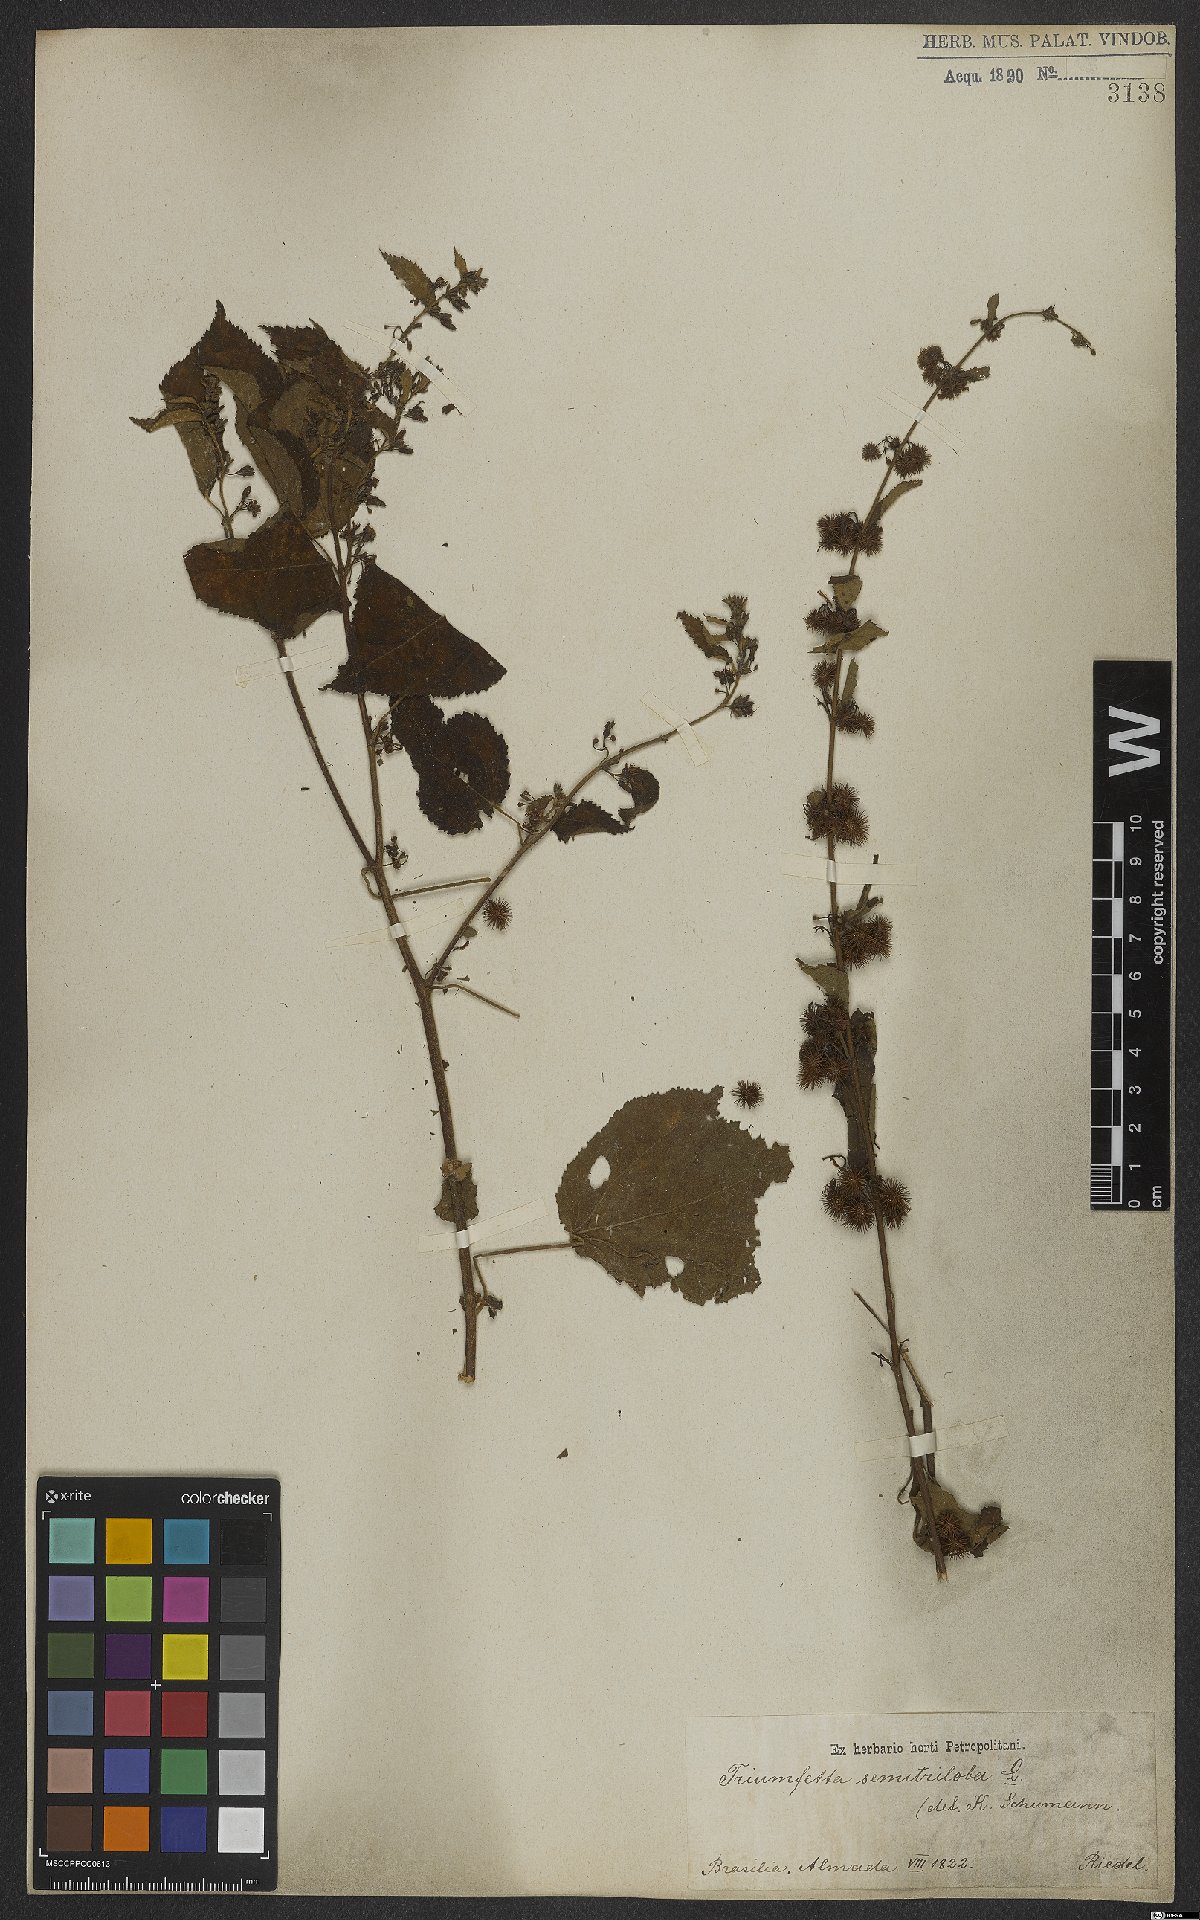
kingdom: Plantae
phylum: Tracheophyta
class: Magnoliopsida
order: Malvales
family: Malvaceae
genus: Triumfetta
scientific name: Triumfetta semitriloba
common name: Sacramento burbark
